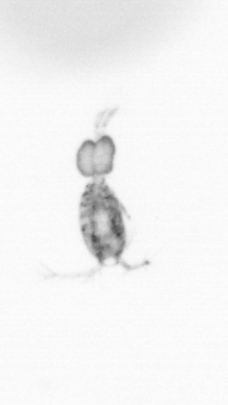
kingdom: Animalia
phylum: Arthropoda
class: Copepoda
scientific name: Copepoda
